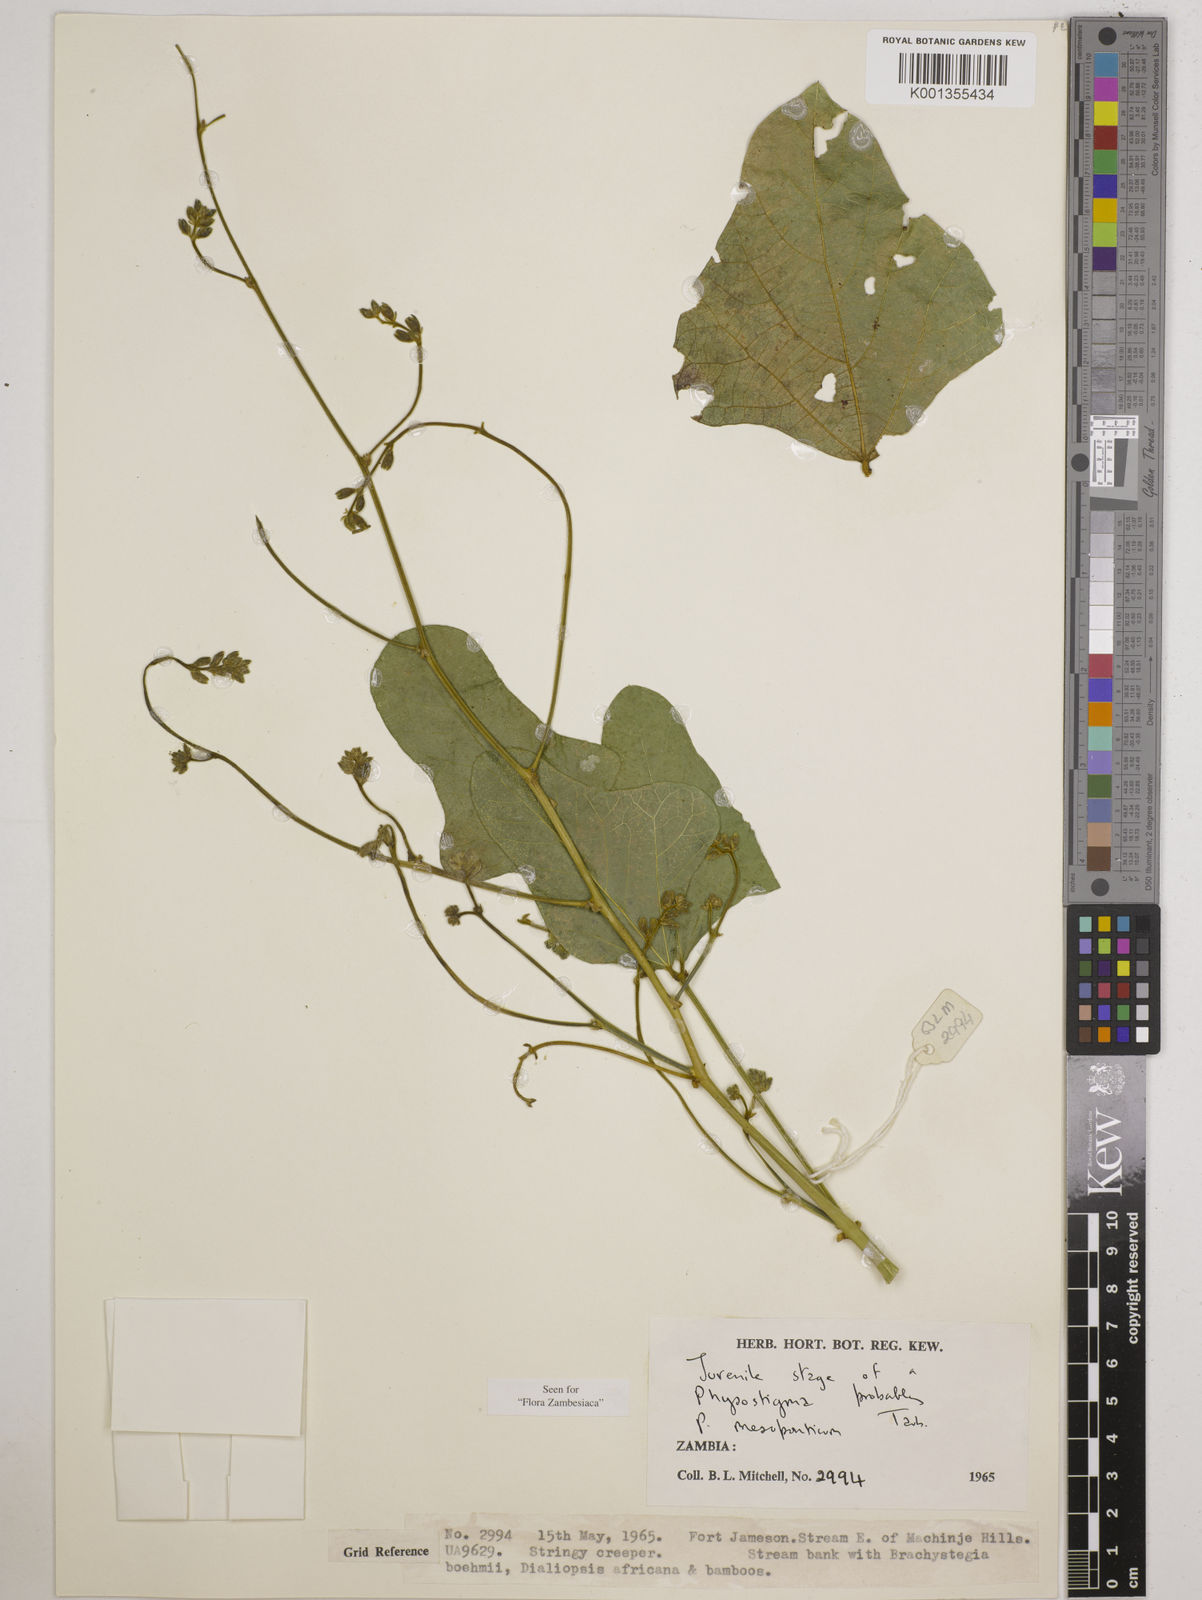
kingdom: Plantae
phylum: Tracheophyta
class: Magnoliopsida
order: Fabales
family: Fabaceae
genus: Physostigma
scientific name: Physostigma mesoponticum
